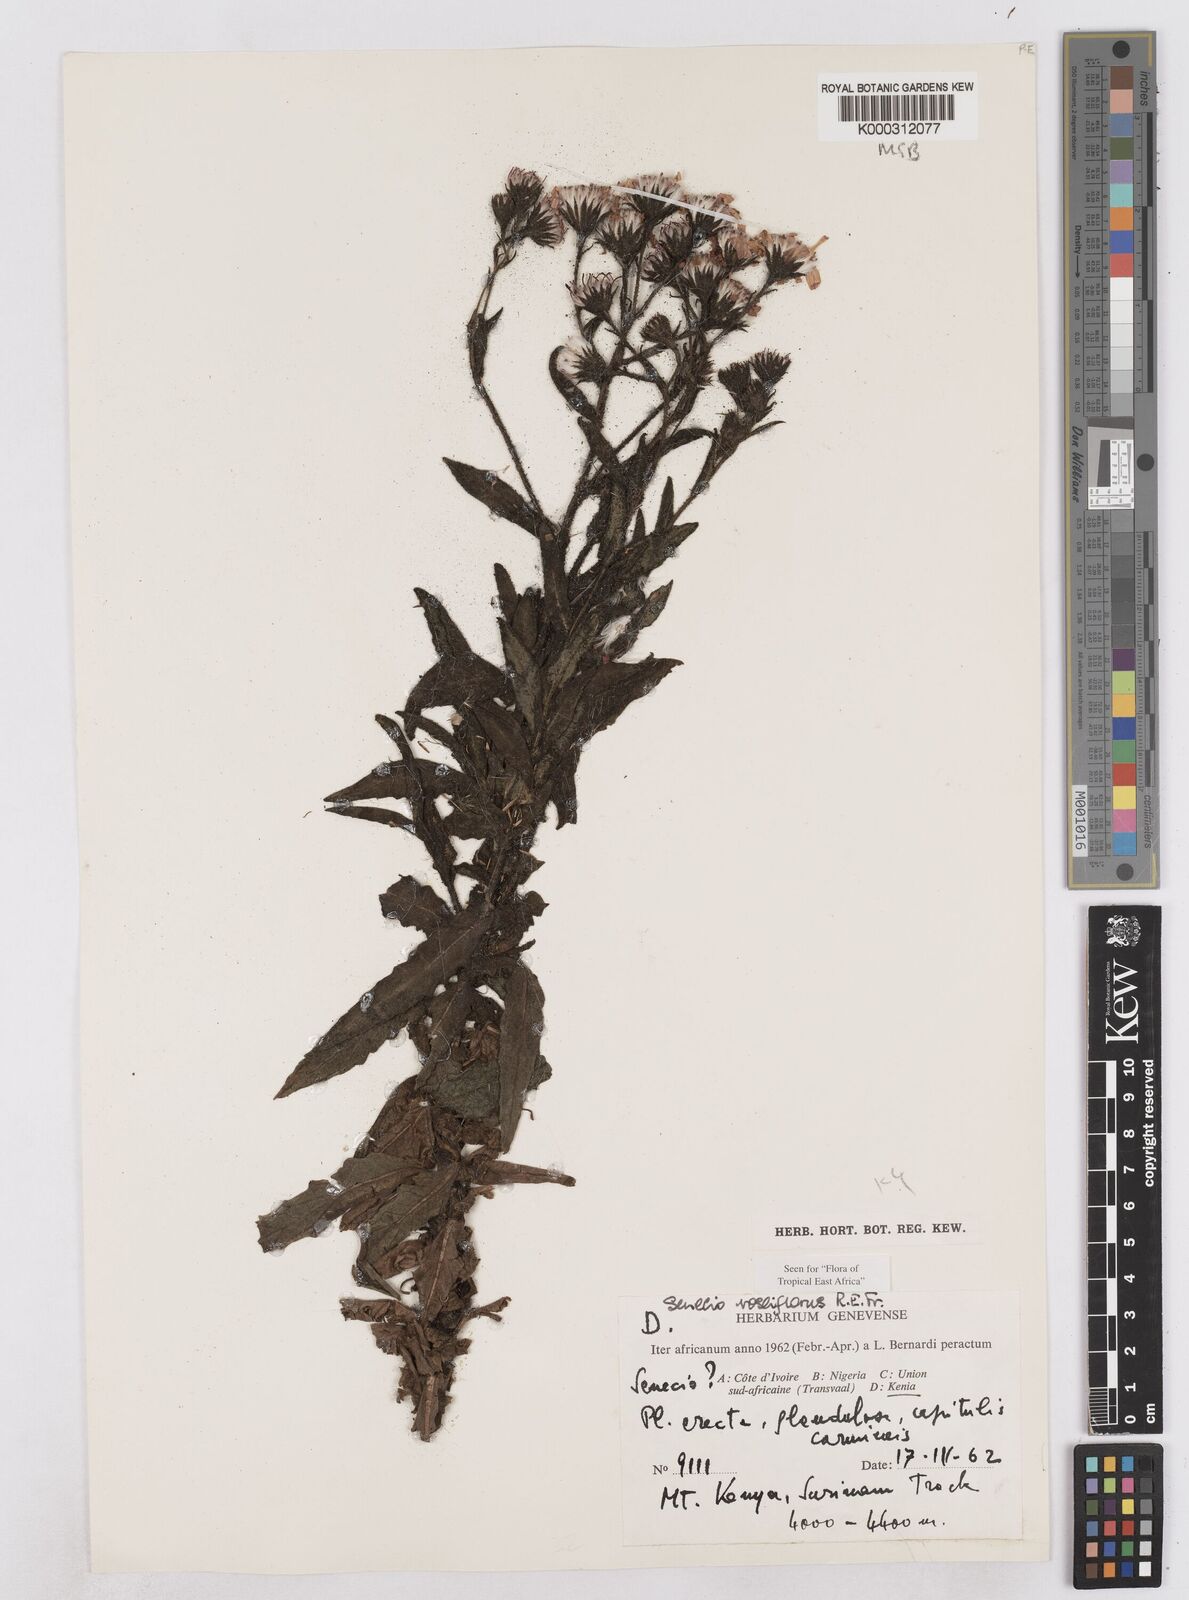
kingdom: Plantae
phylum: Tracheophyta
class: Magnoliopsida
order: Asterales
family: Asteraceae
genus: Senecio
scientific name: Senecio roseiflorus
